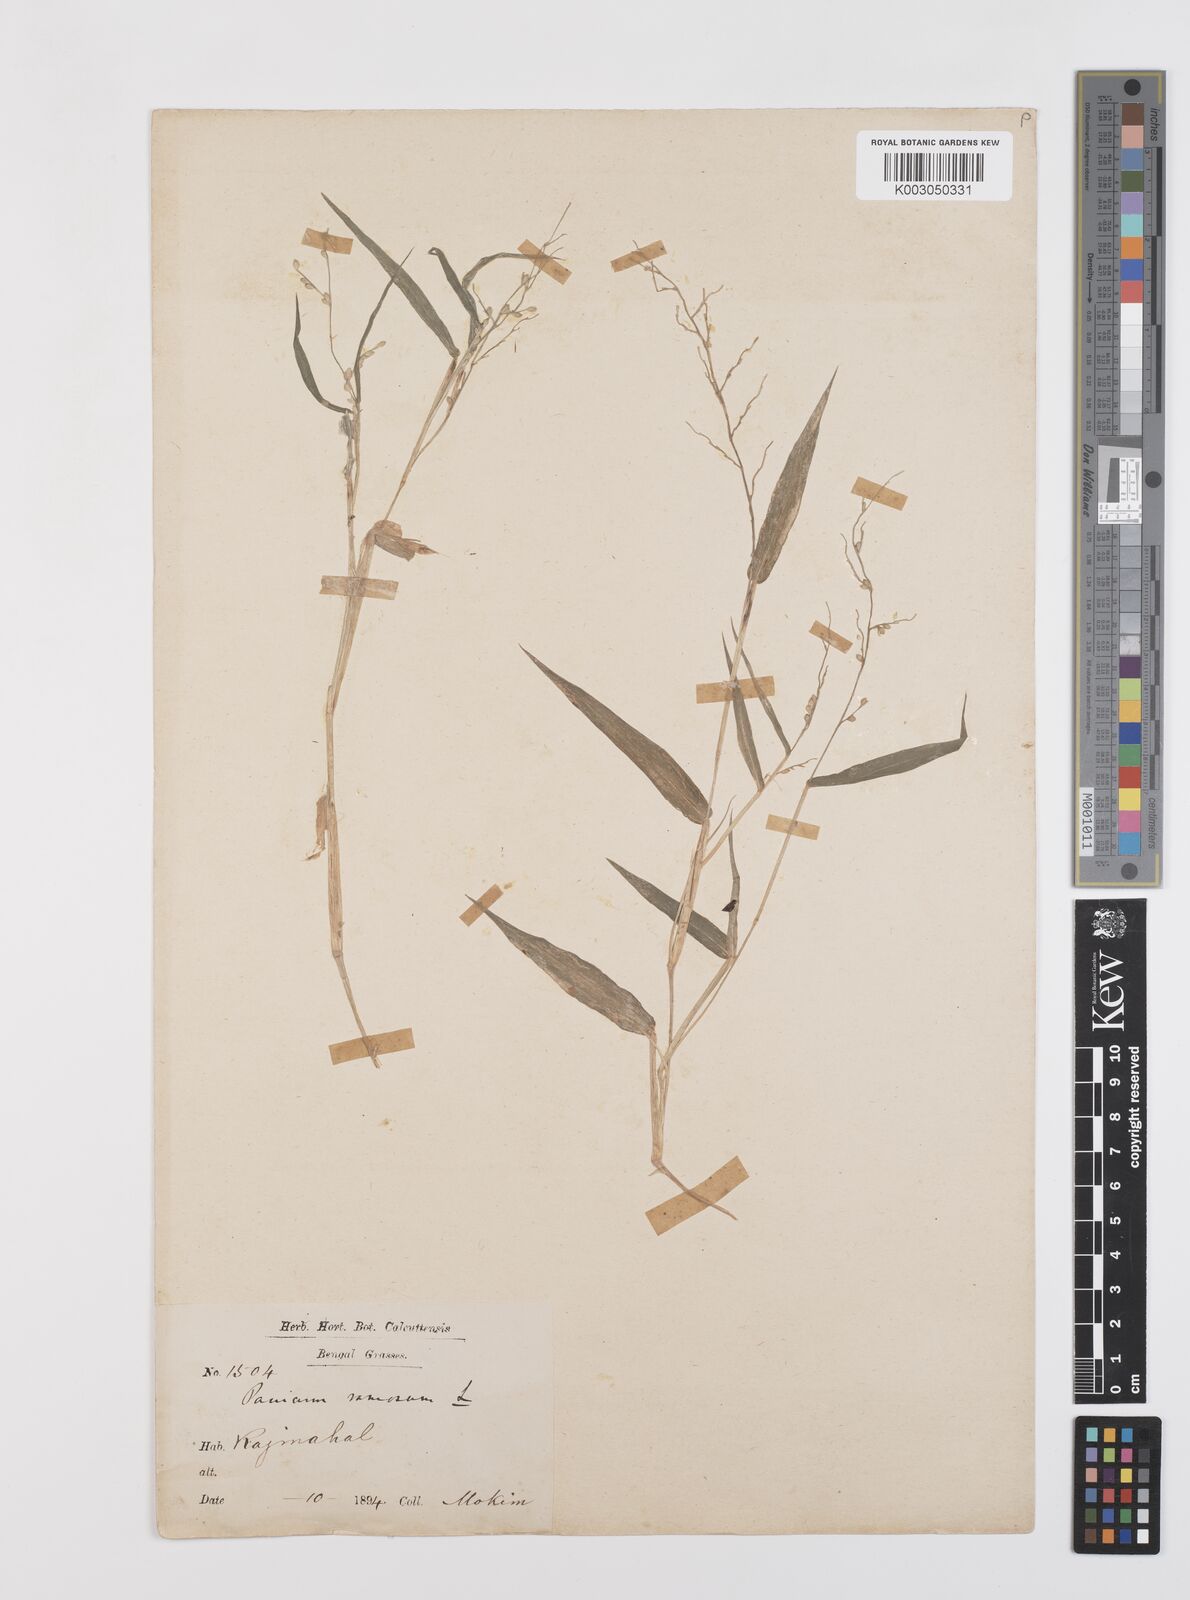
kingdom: Plantae
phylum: Tracheophyta
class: Liliopsida
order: Poales
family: Poaceae
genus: Urochloa
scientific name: Urochloa ramosa
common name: Browntop millet
